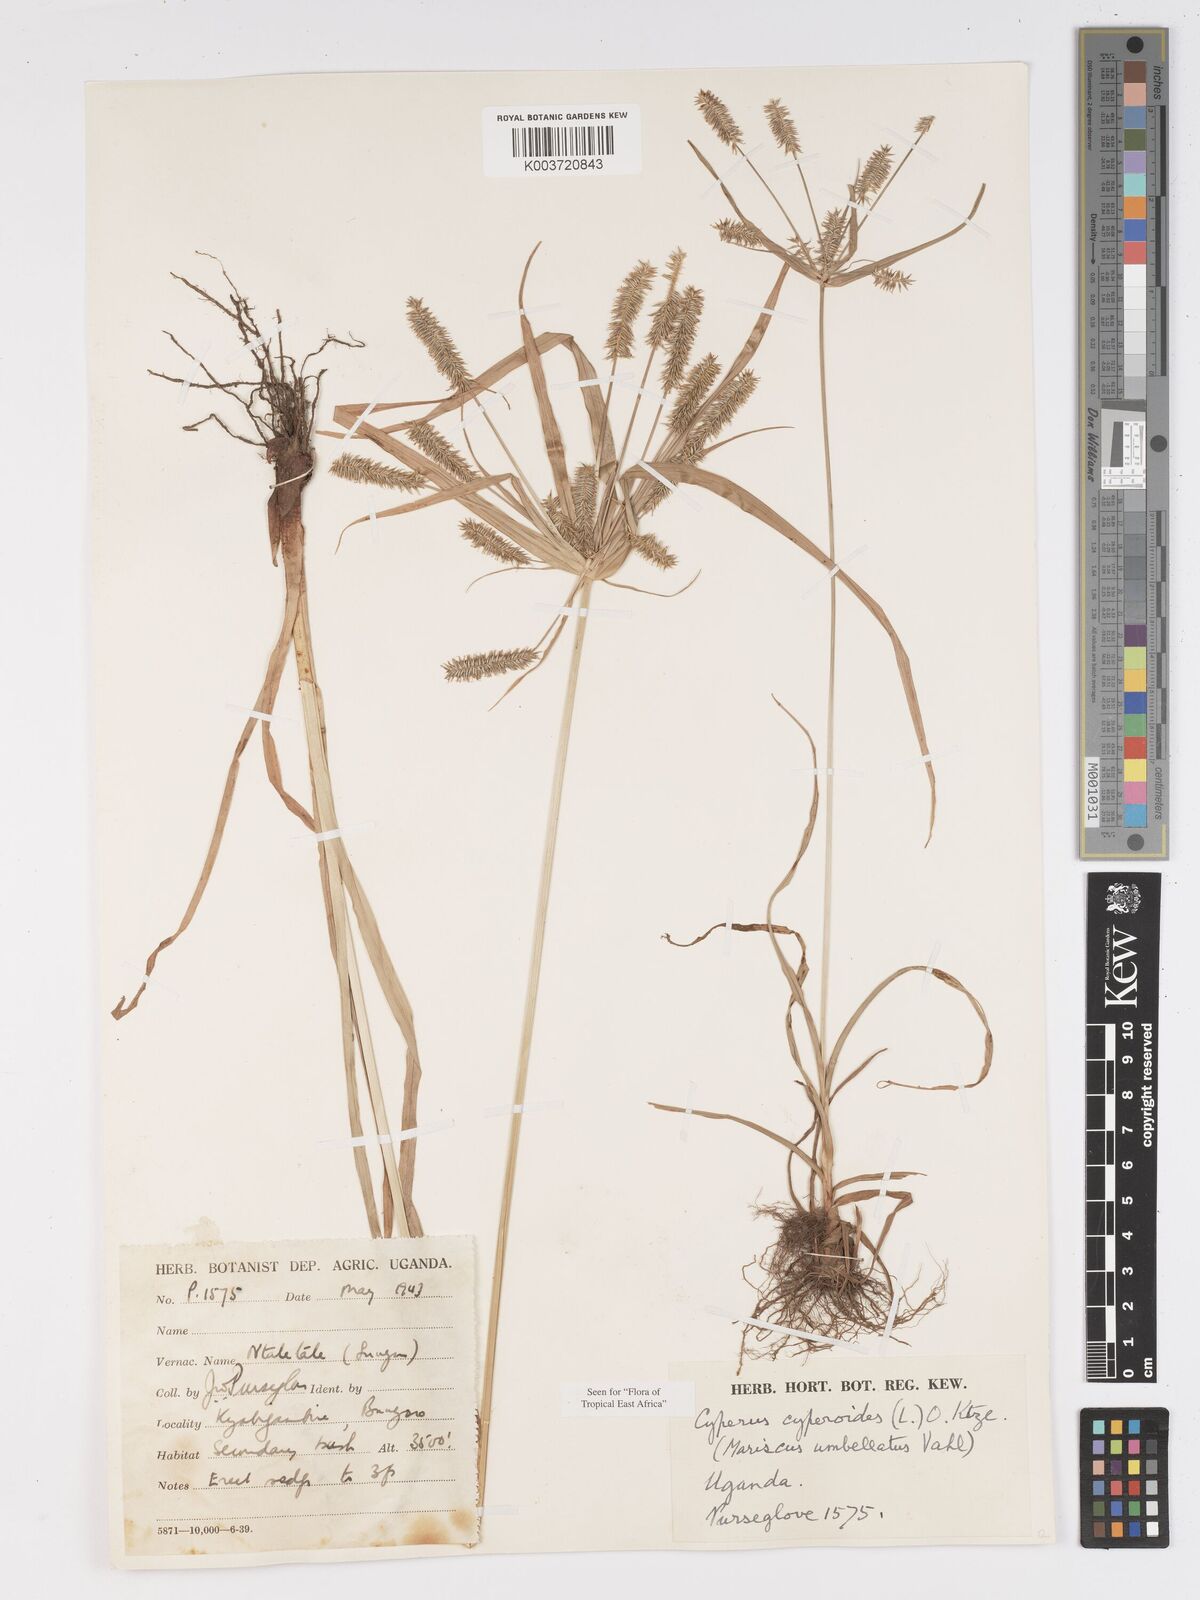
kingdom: Plantae
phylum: Tracheophyta
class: Liliopsida
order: Poales
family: Cyperaceae
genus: Cyperus
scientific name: Cyperus cyperoides
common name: Pacific island flat sedge
